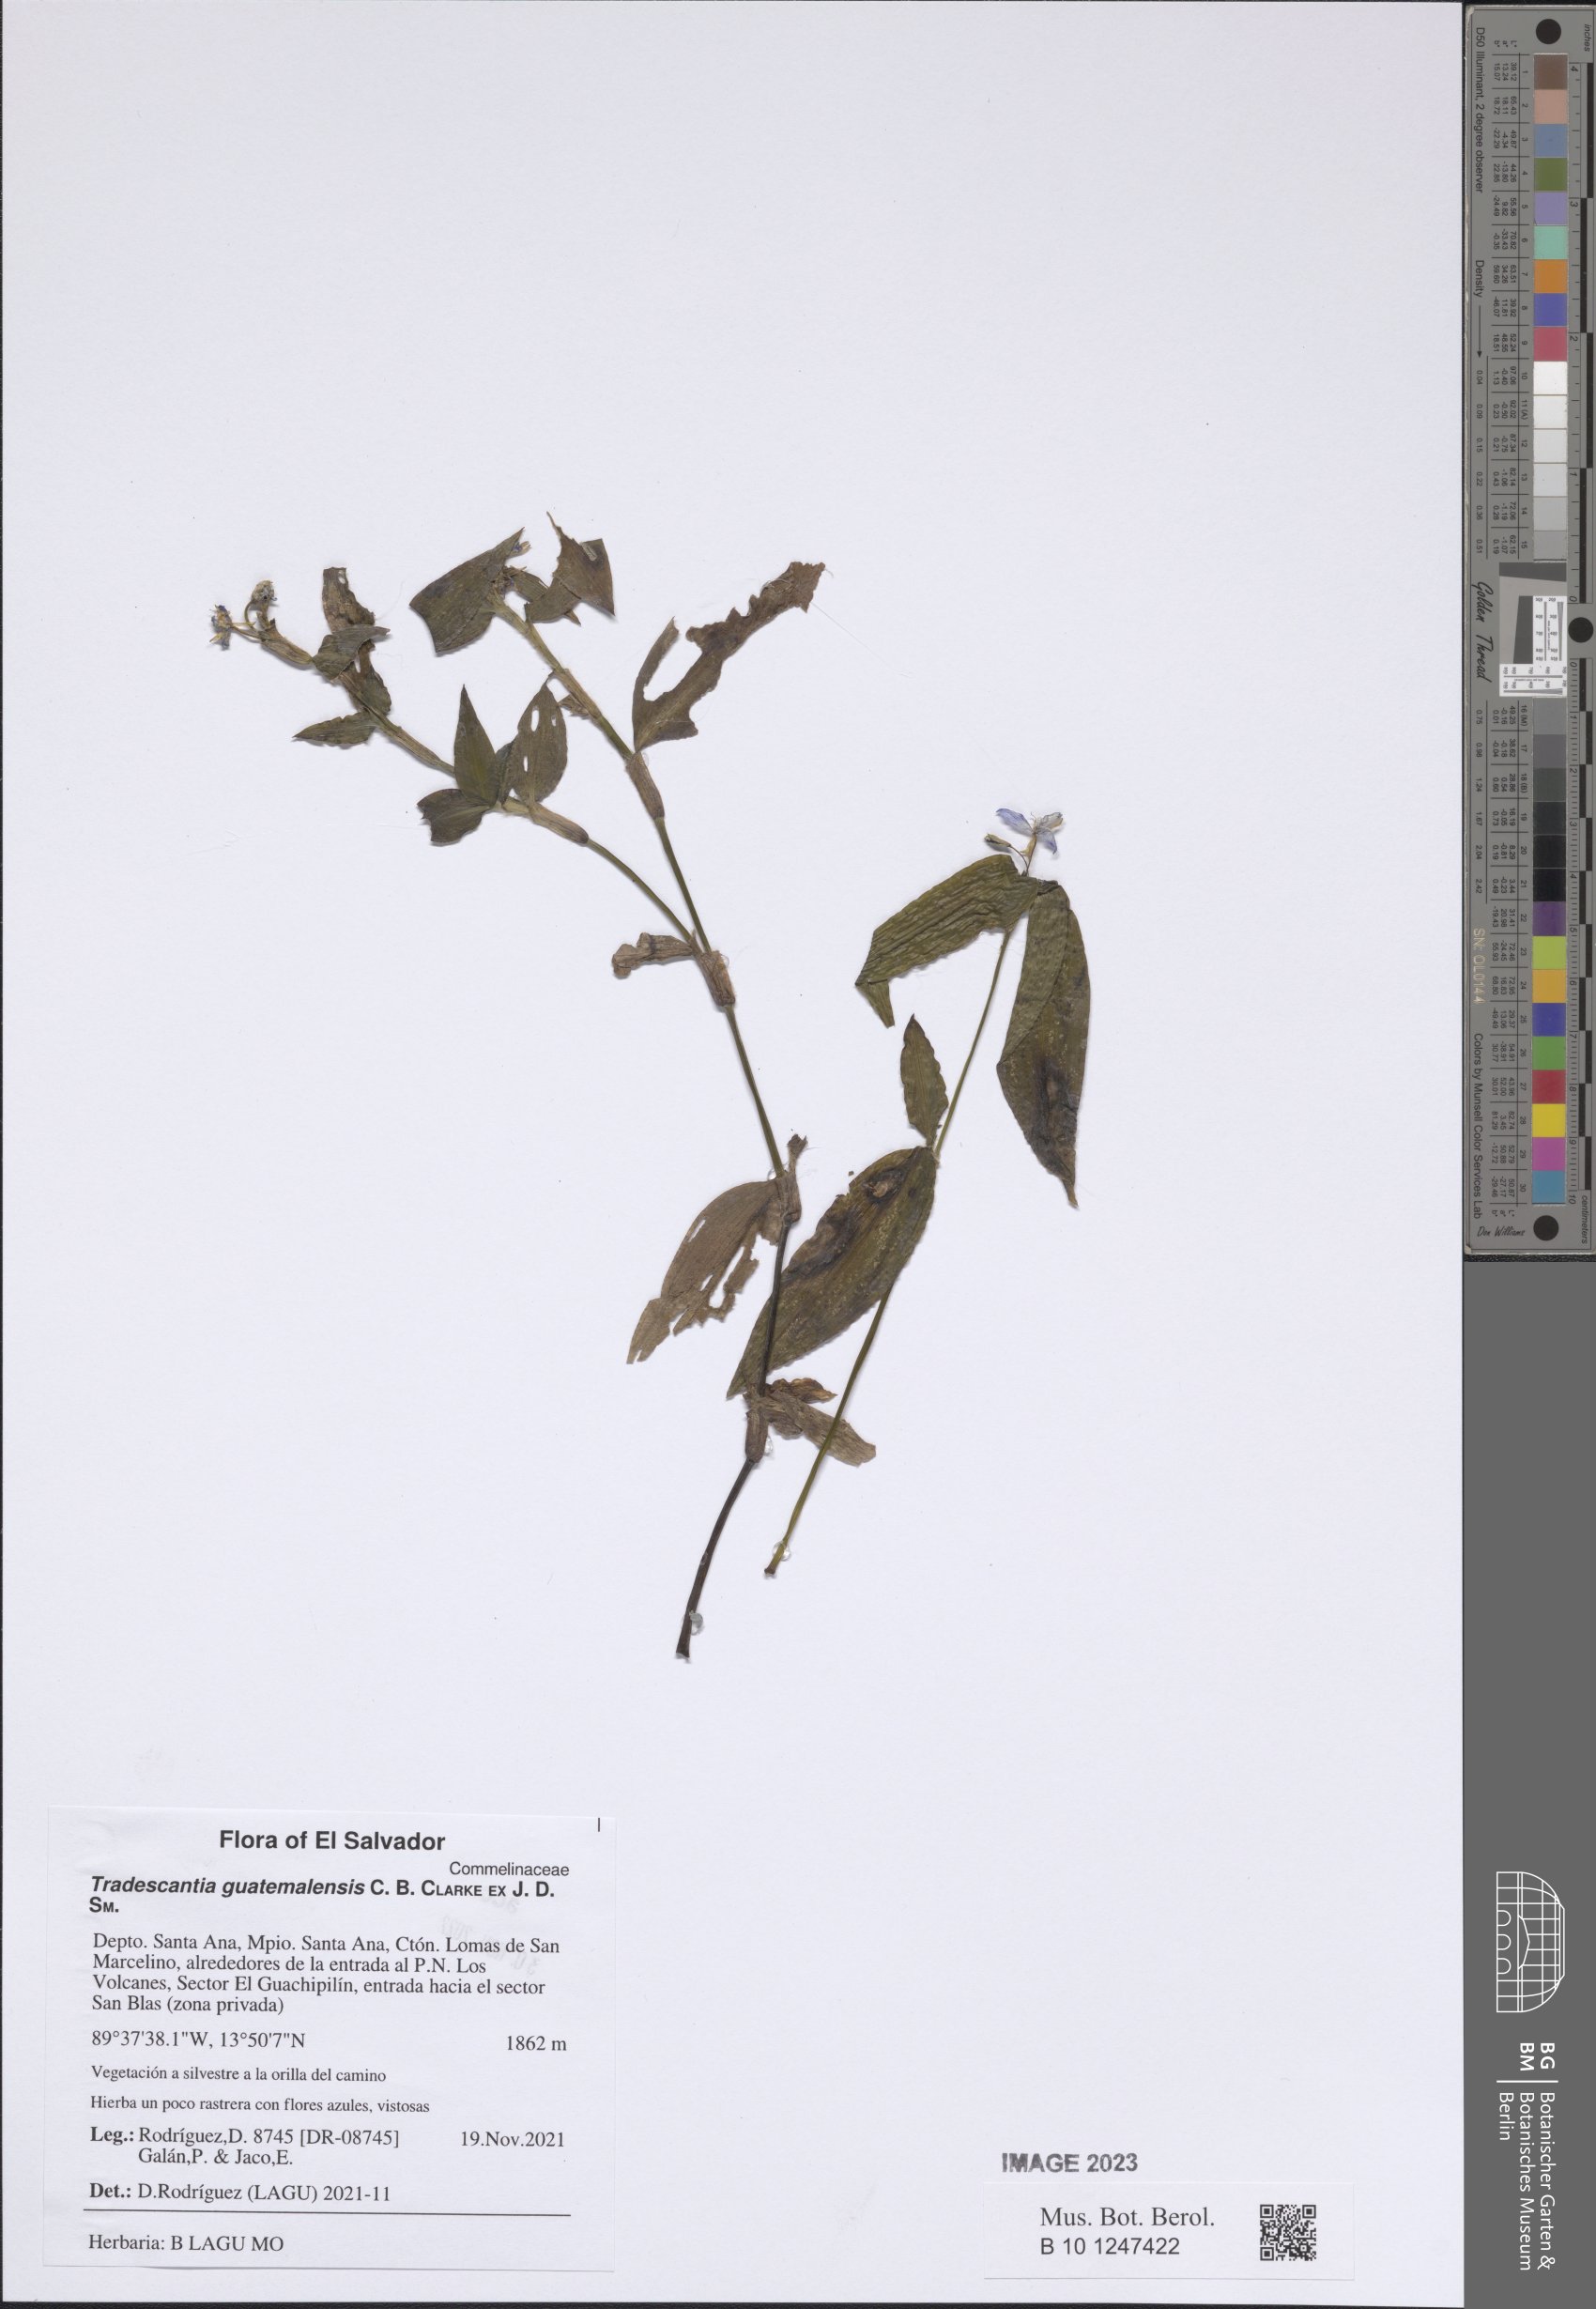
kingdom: Plantae
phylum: Tracheophyta
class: Liliopsida
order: Commelinales
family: Commelinaceae
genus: Elasis
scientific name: Elasis guatemalensis
